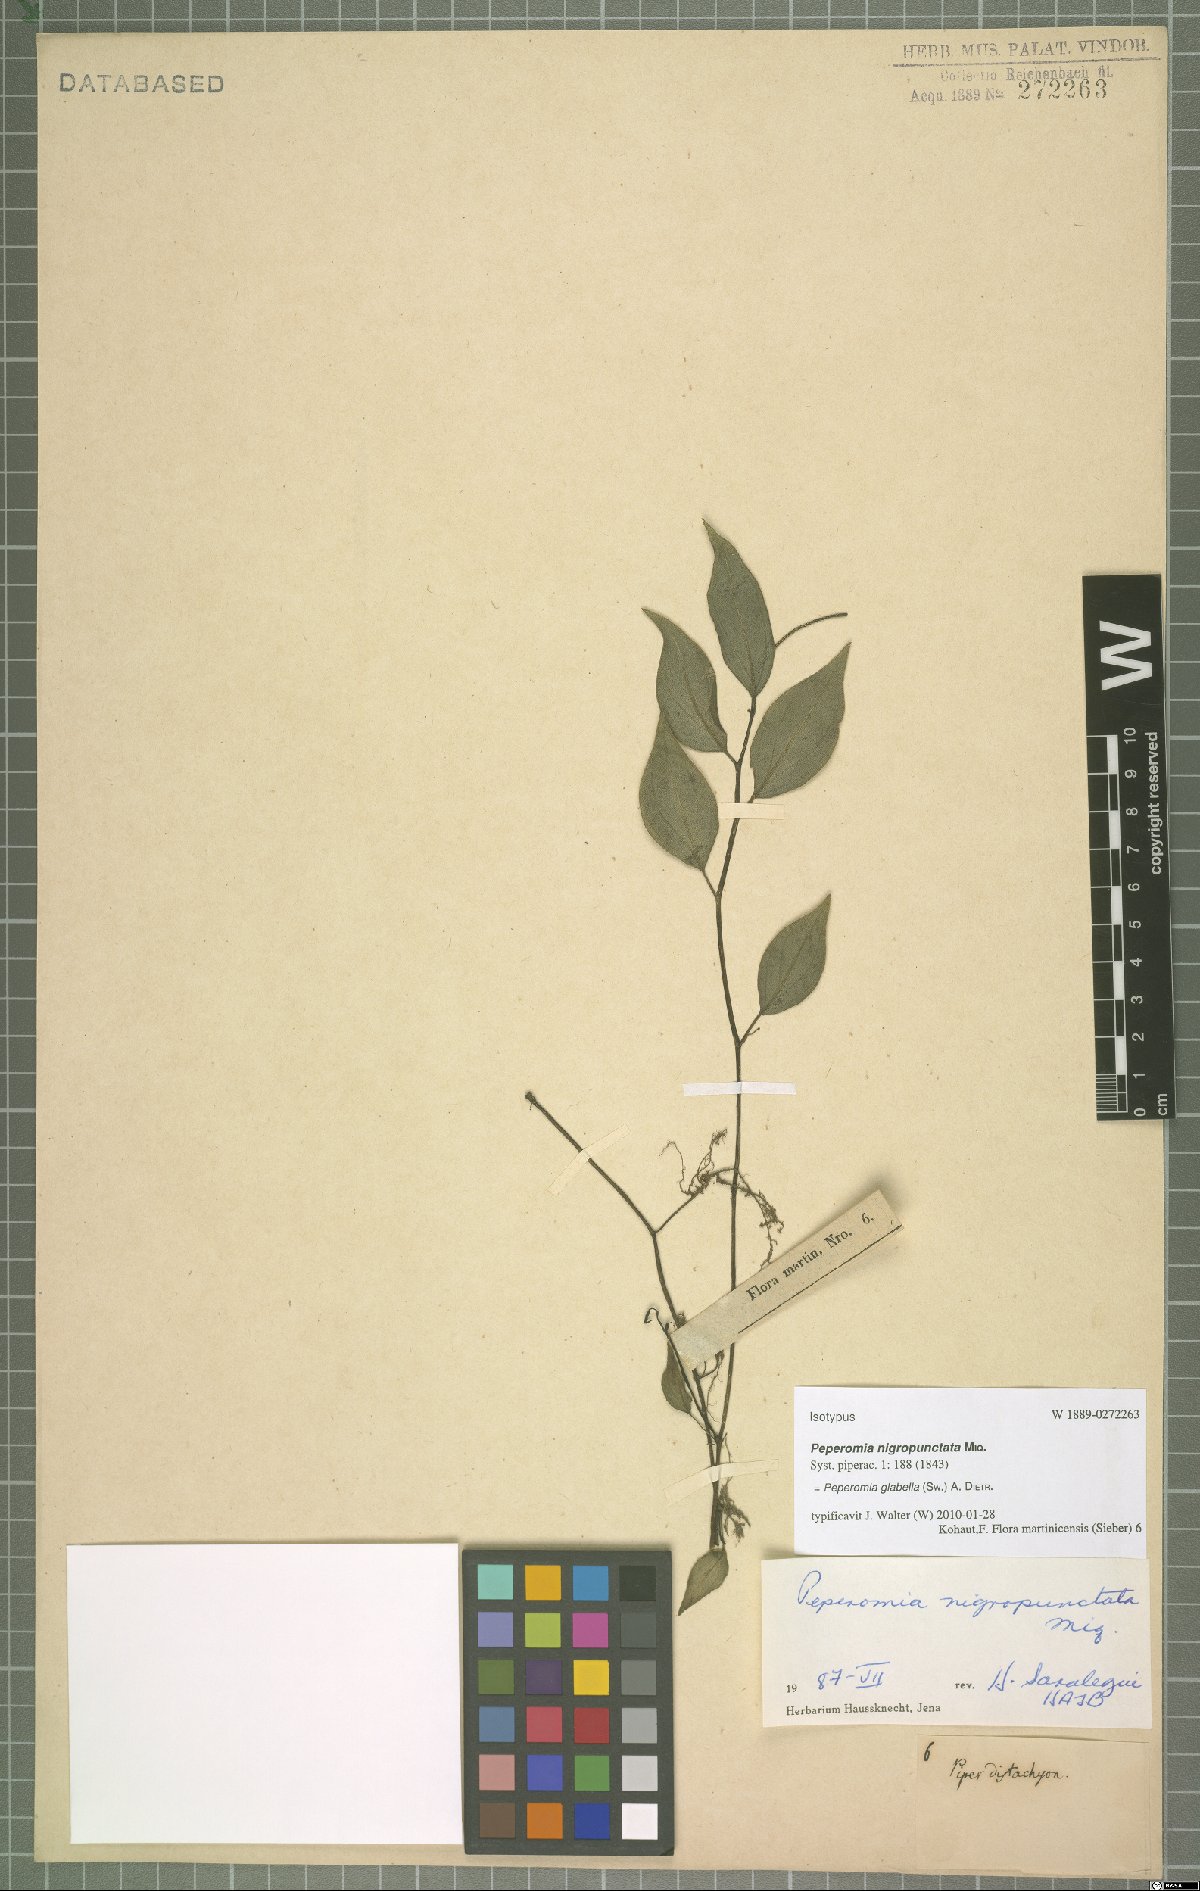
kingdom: Plantae
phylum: Tracheophyta
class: Magnoliopsida
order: Piperales
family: Piperaceae
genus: Peperomia
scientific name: Peperomia glabella
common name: Cypress peperomia
